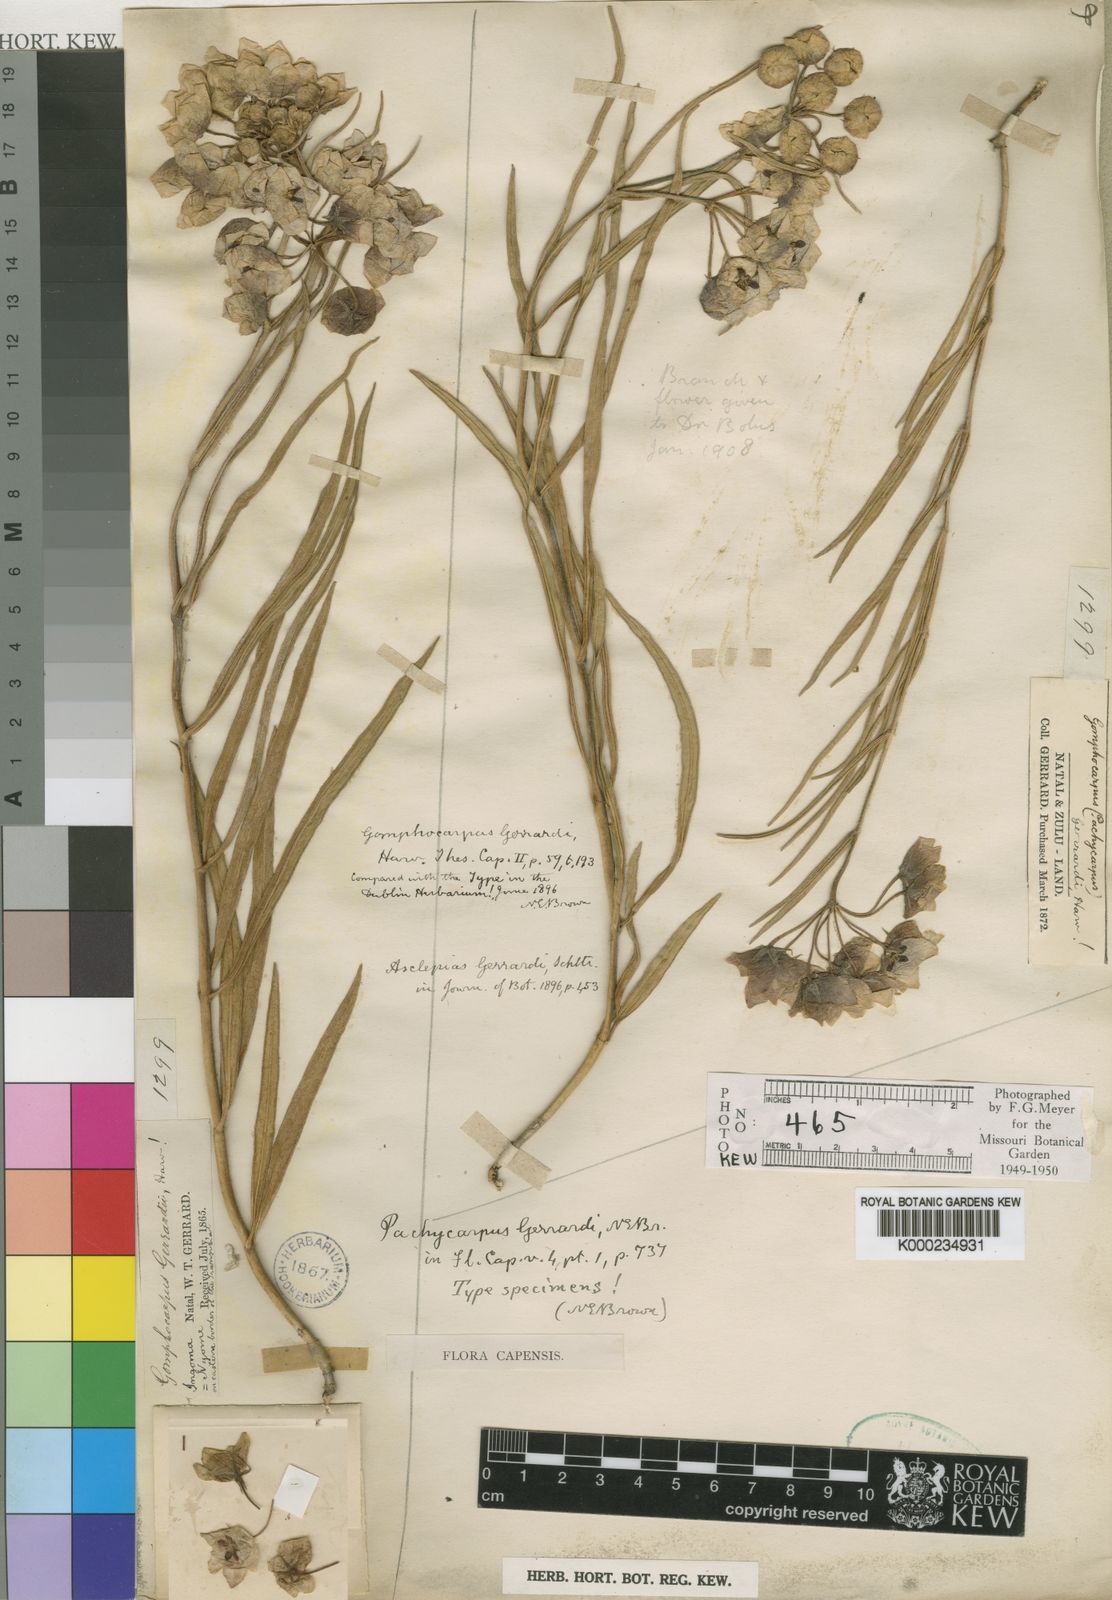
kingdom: Plantae
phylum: Tracheophyta
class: Magnoliopsida
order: Gentianales
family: Apocynaceae
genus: Pachycarpus
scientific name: Pachycarpus campanulatus
